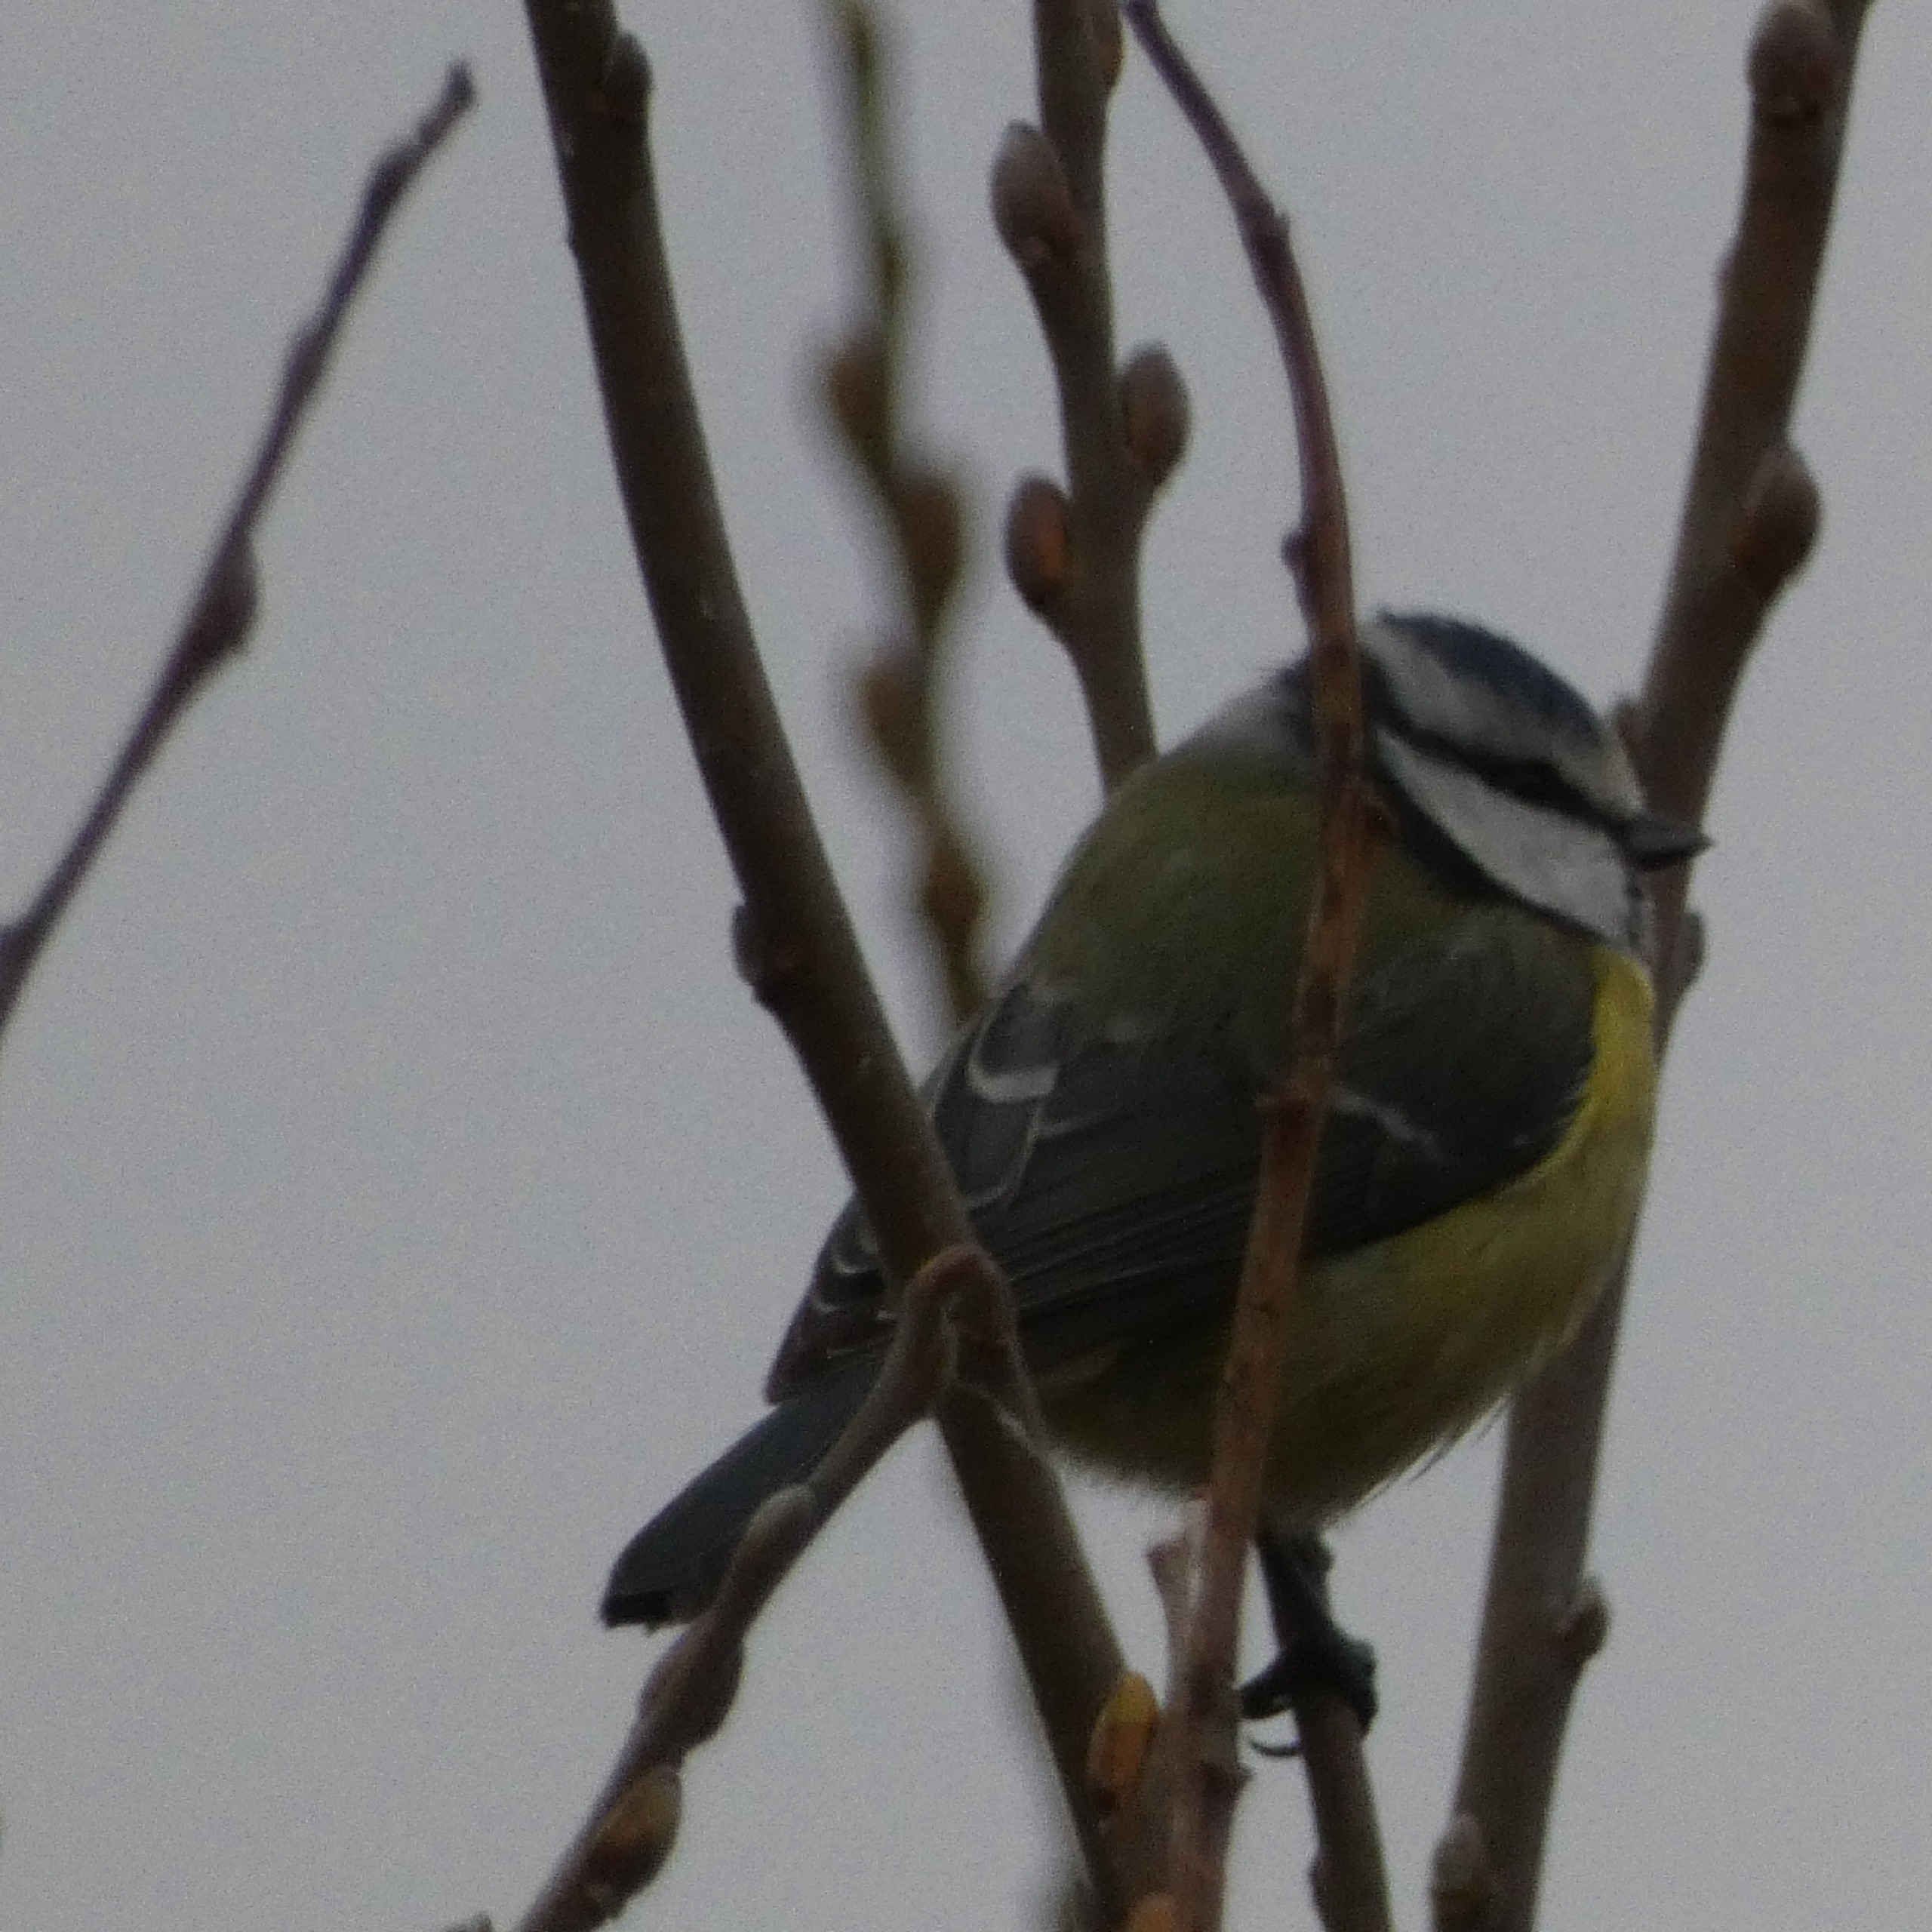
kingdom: Animalia
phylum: Chordata
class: Aves
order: Passeriformes
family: Paridae
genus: Cyanistes
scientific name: Cyanistes caeruleus
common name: Blåmejse
